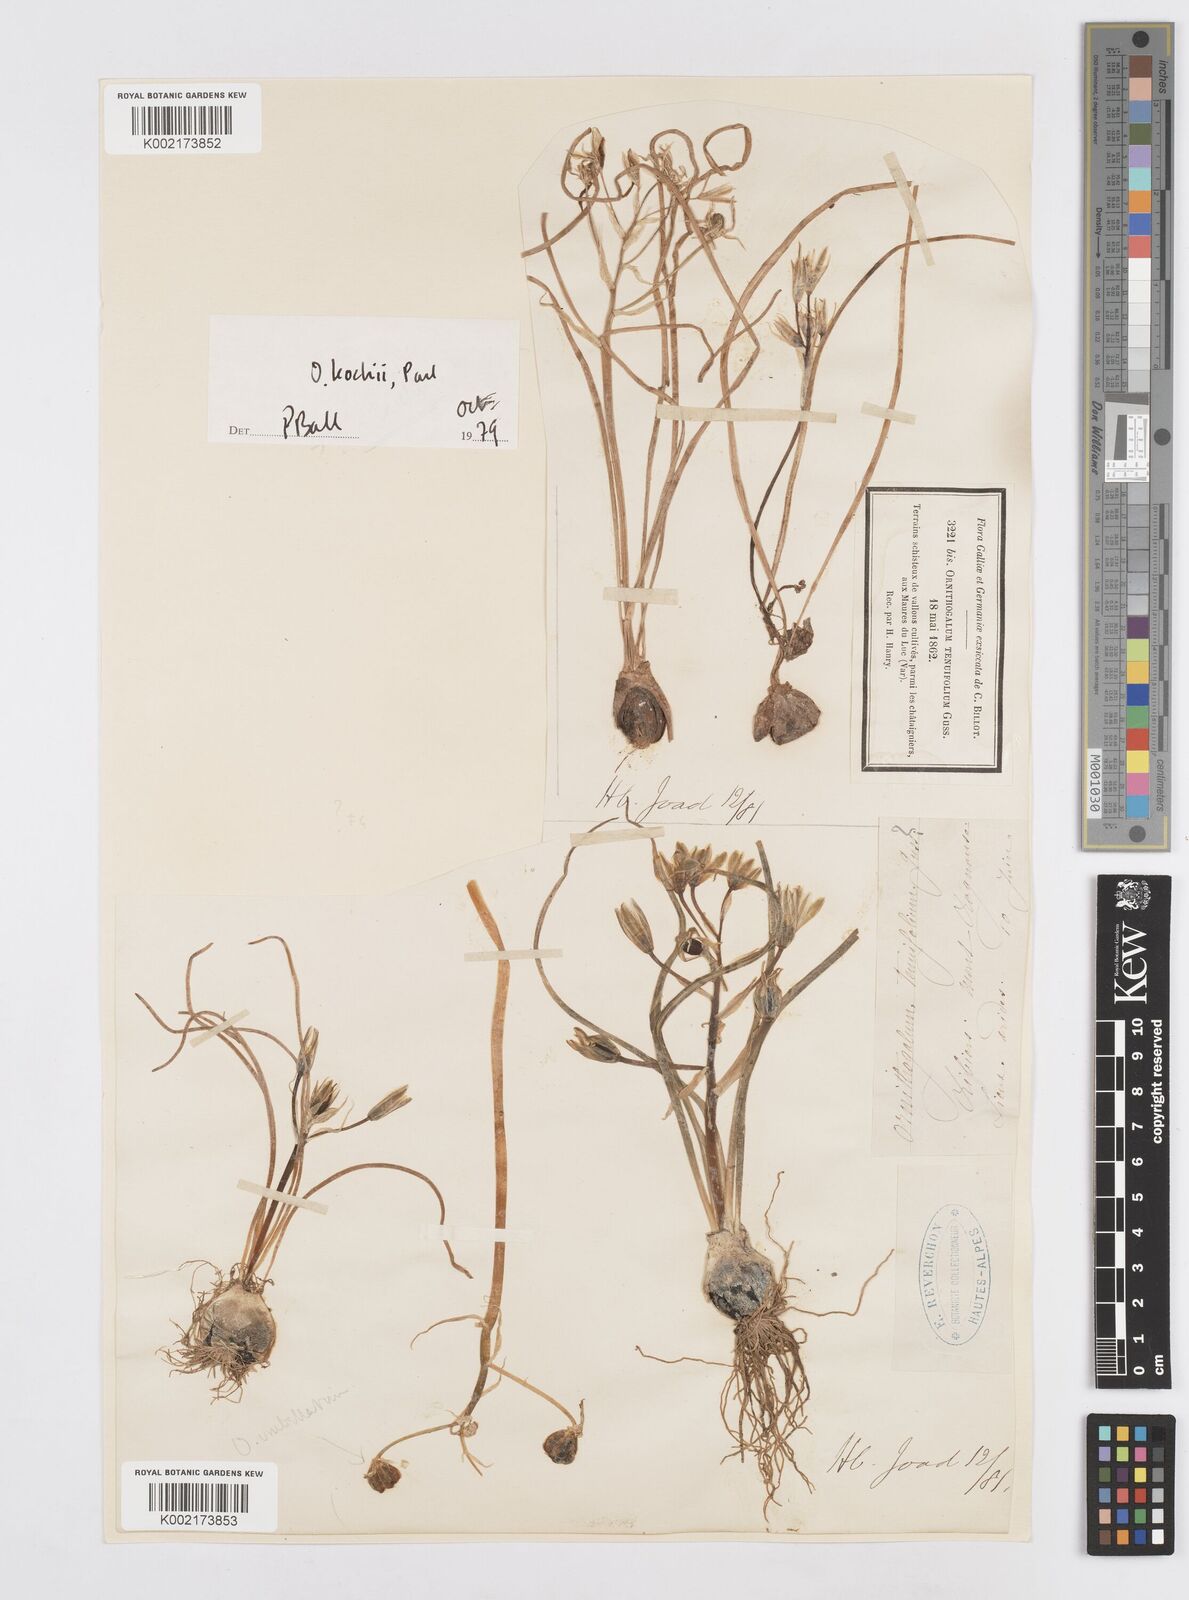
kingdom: Plantae
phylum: Tracheophyta
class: Liliopsida
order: Asparagales
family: Asparagaceae
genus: Ornithogalum
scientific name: Ornithogalum orthophyllum
